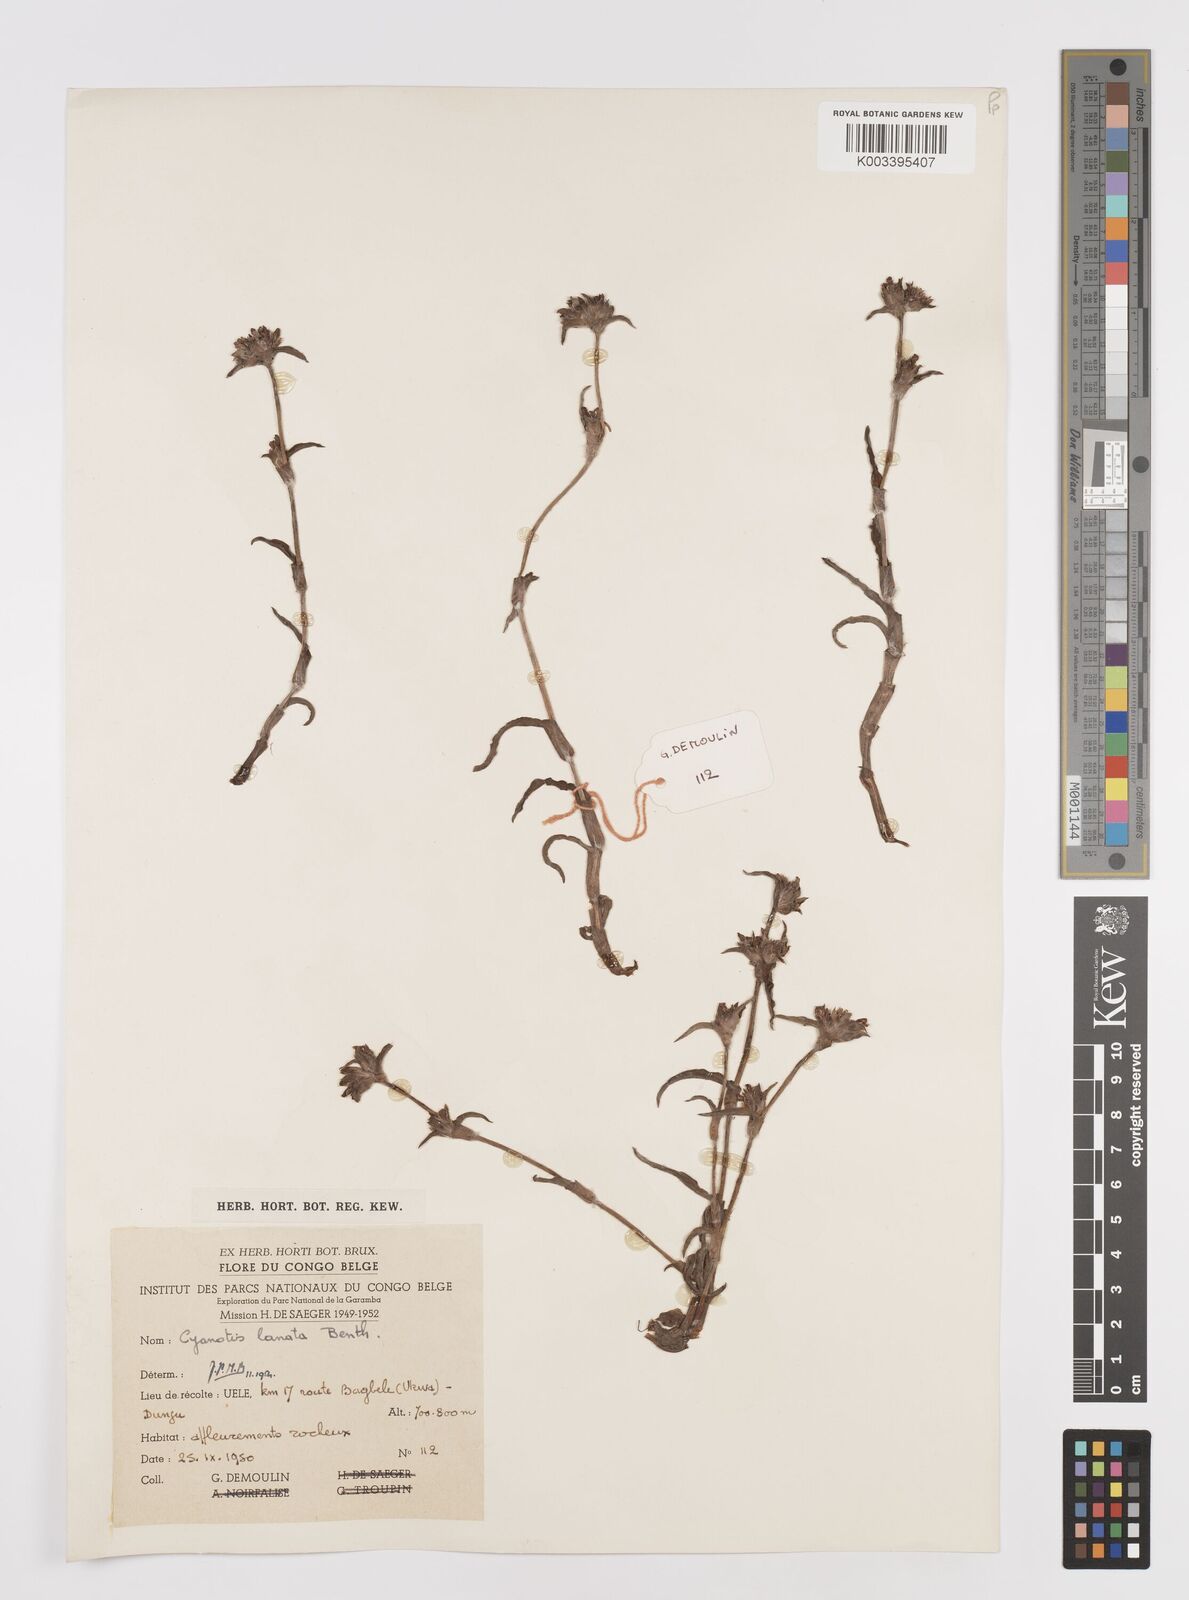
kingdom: Plantae
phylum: Tracheophyta
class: Liliopsida
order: Commelinales
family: Commelinaceae
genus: Cyanotis
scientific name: Cyanotis lanata
